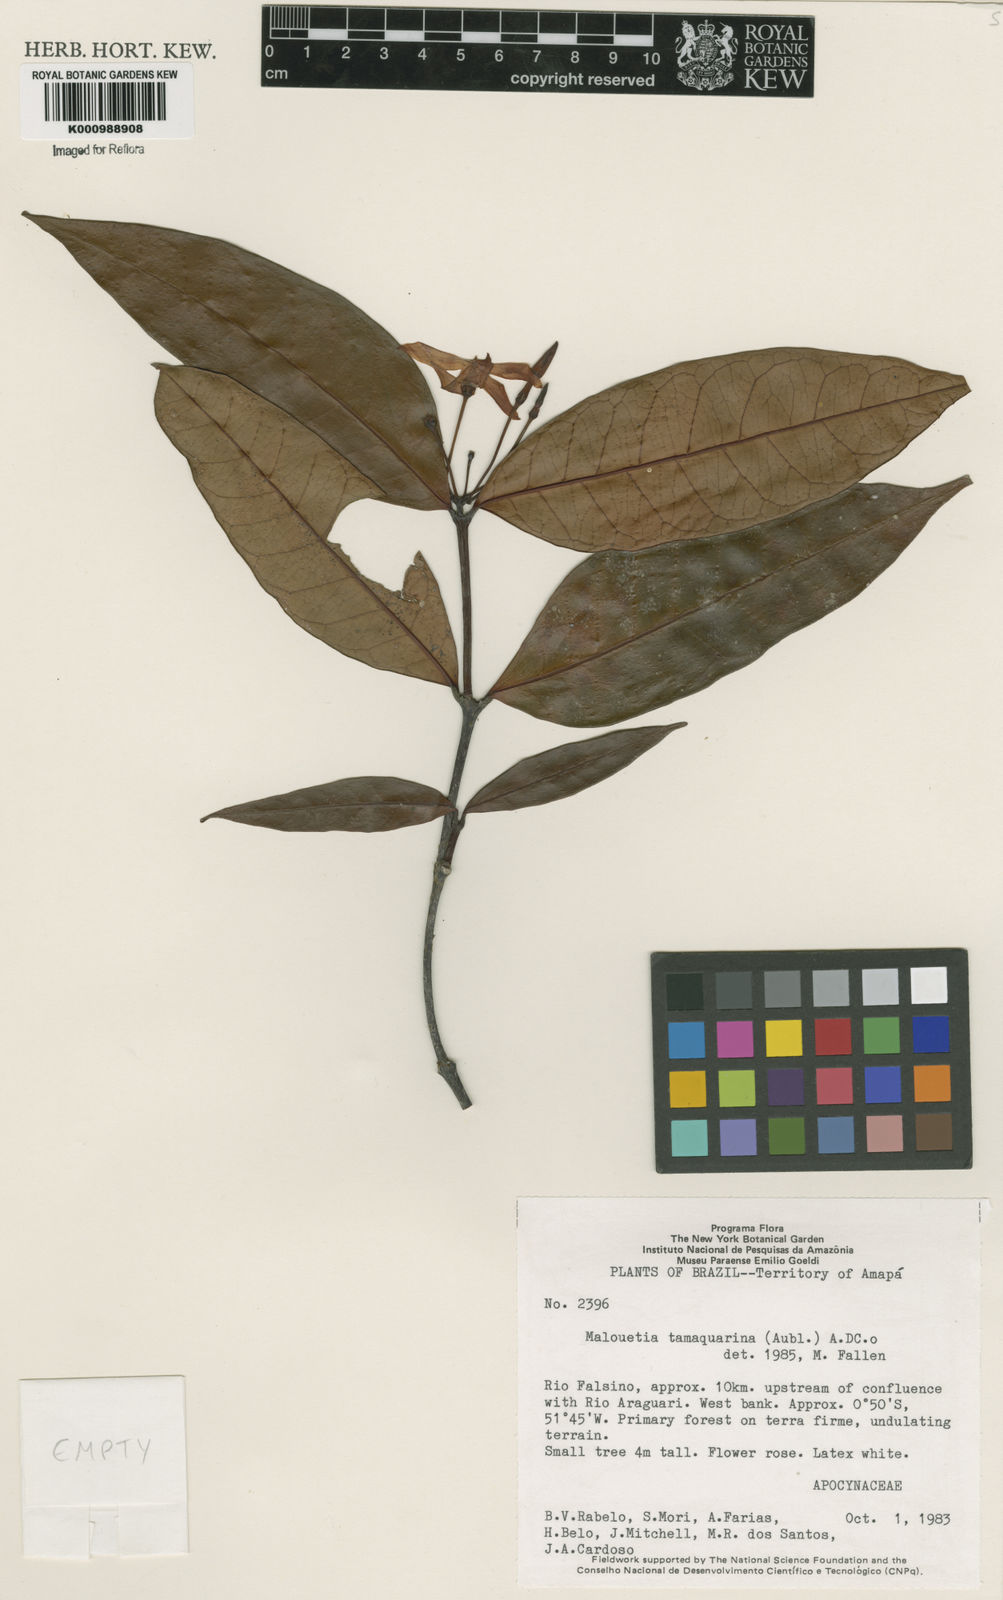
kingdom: Plantae
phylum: Tracheophyta
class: Magnoliopsida
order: Gentianales
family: Apocynaceae
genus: Malouetia
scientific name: Malouetia tamaquarina
